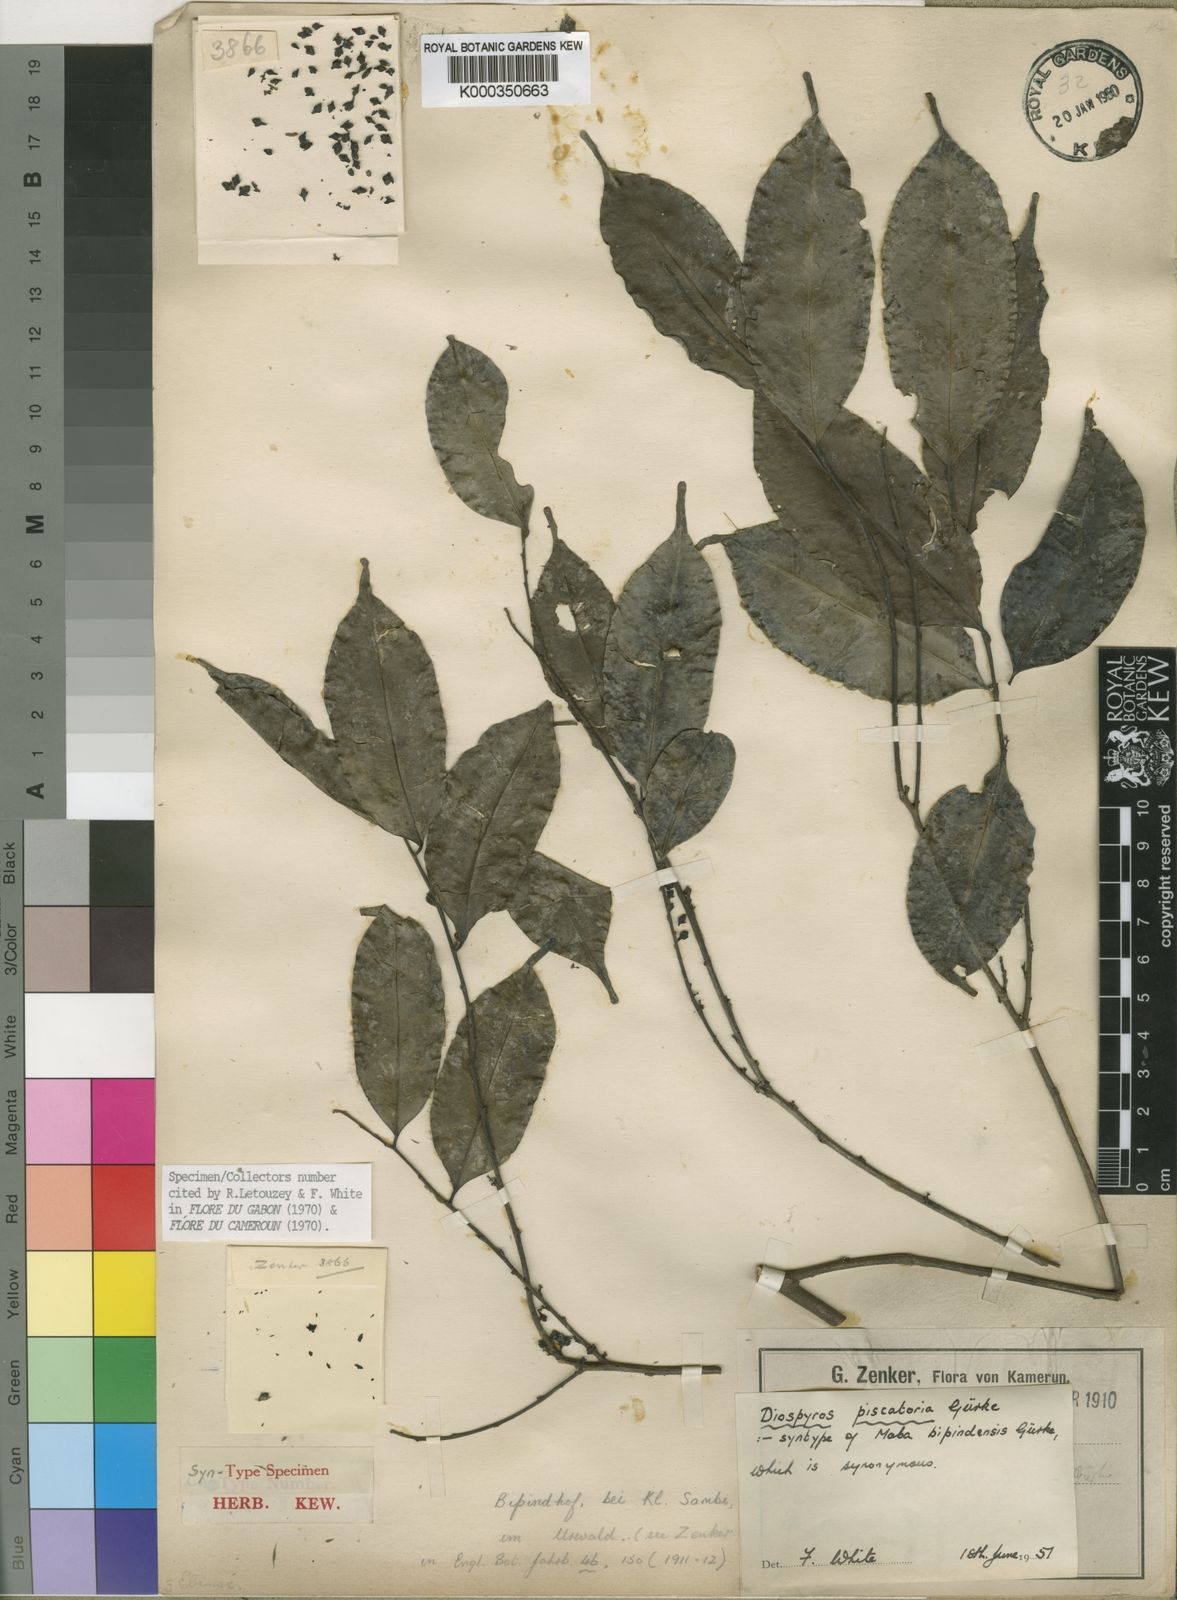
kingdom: Plantae
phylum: Tracheophyta
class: Magnoliopsida
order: Ericales
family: Ebenaceae
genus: Diospyros
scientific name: Diospyros
